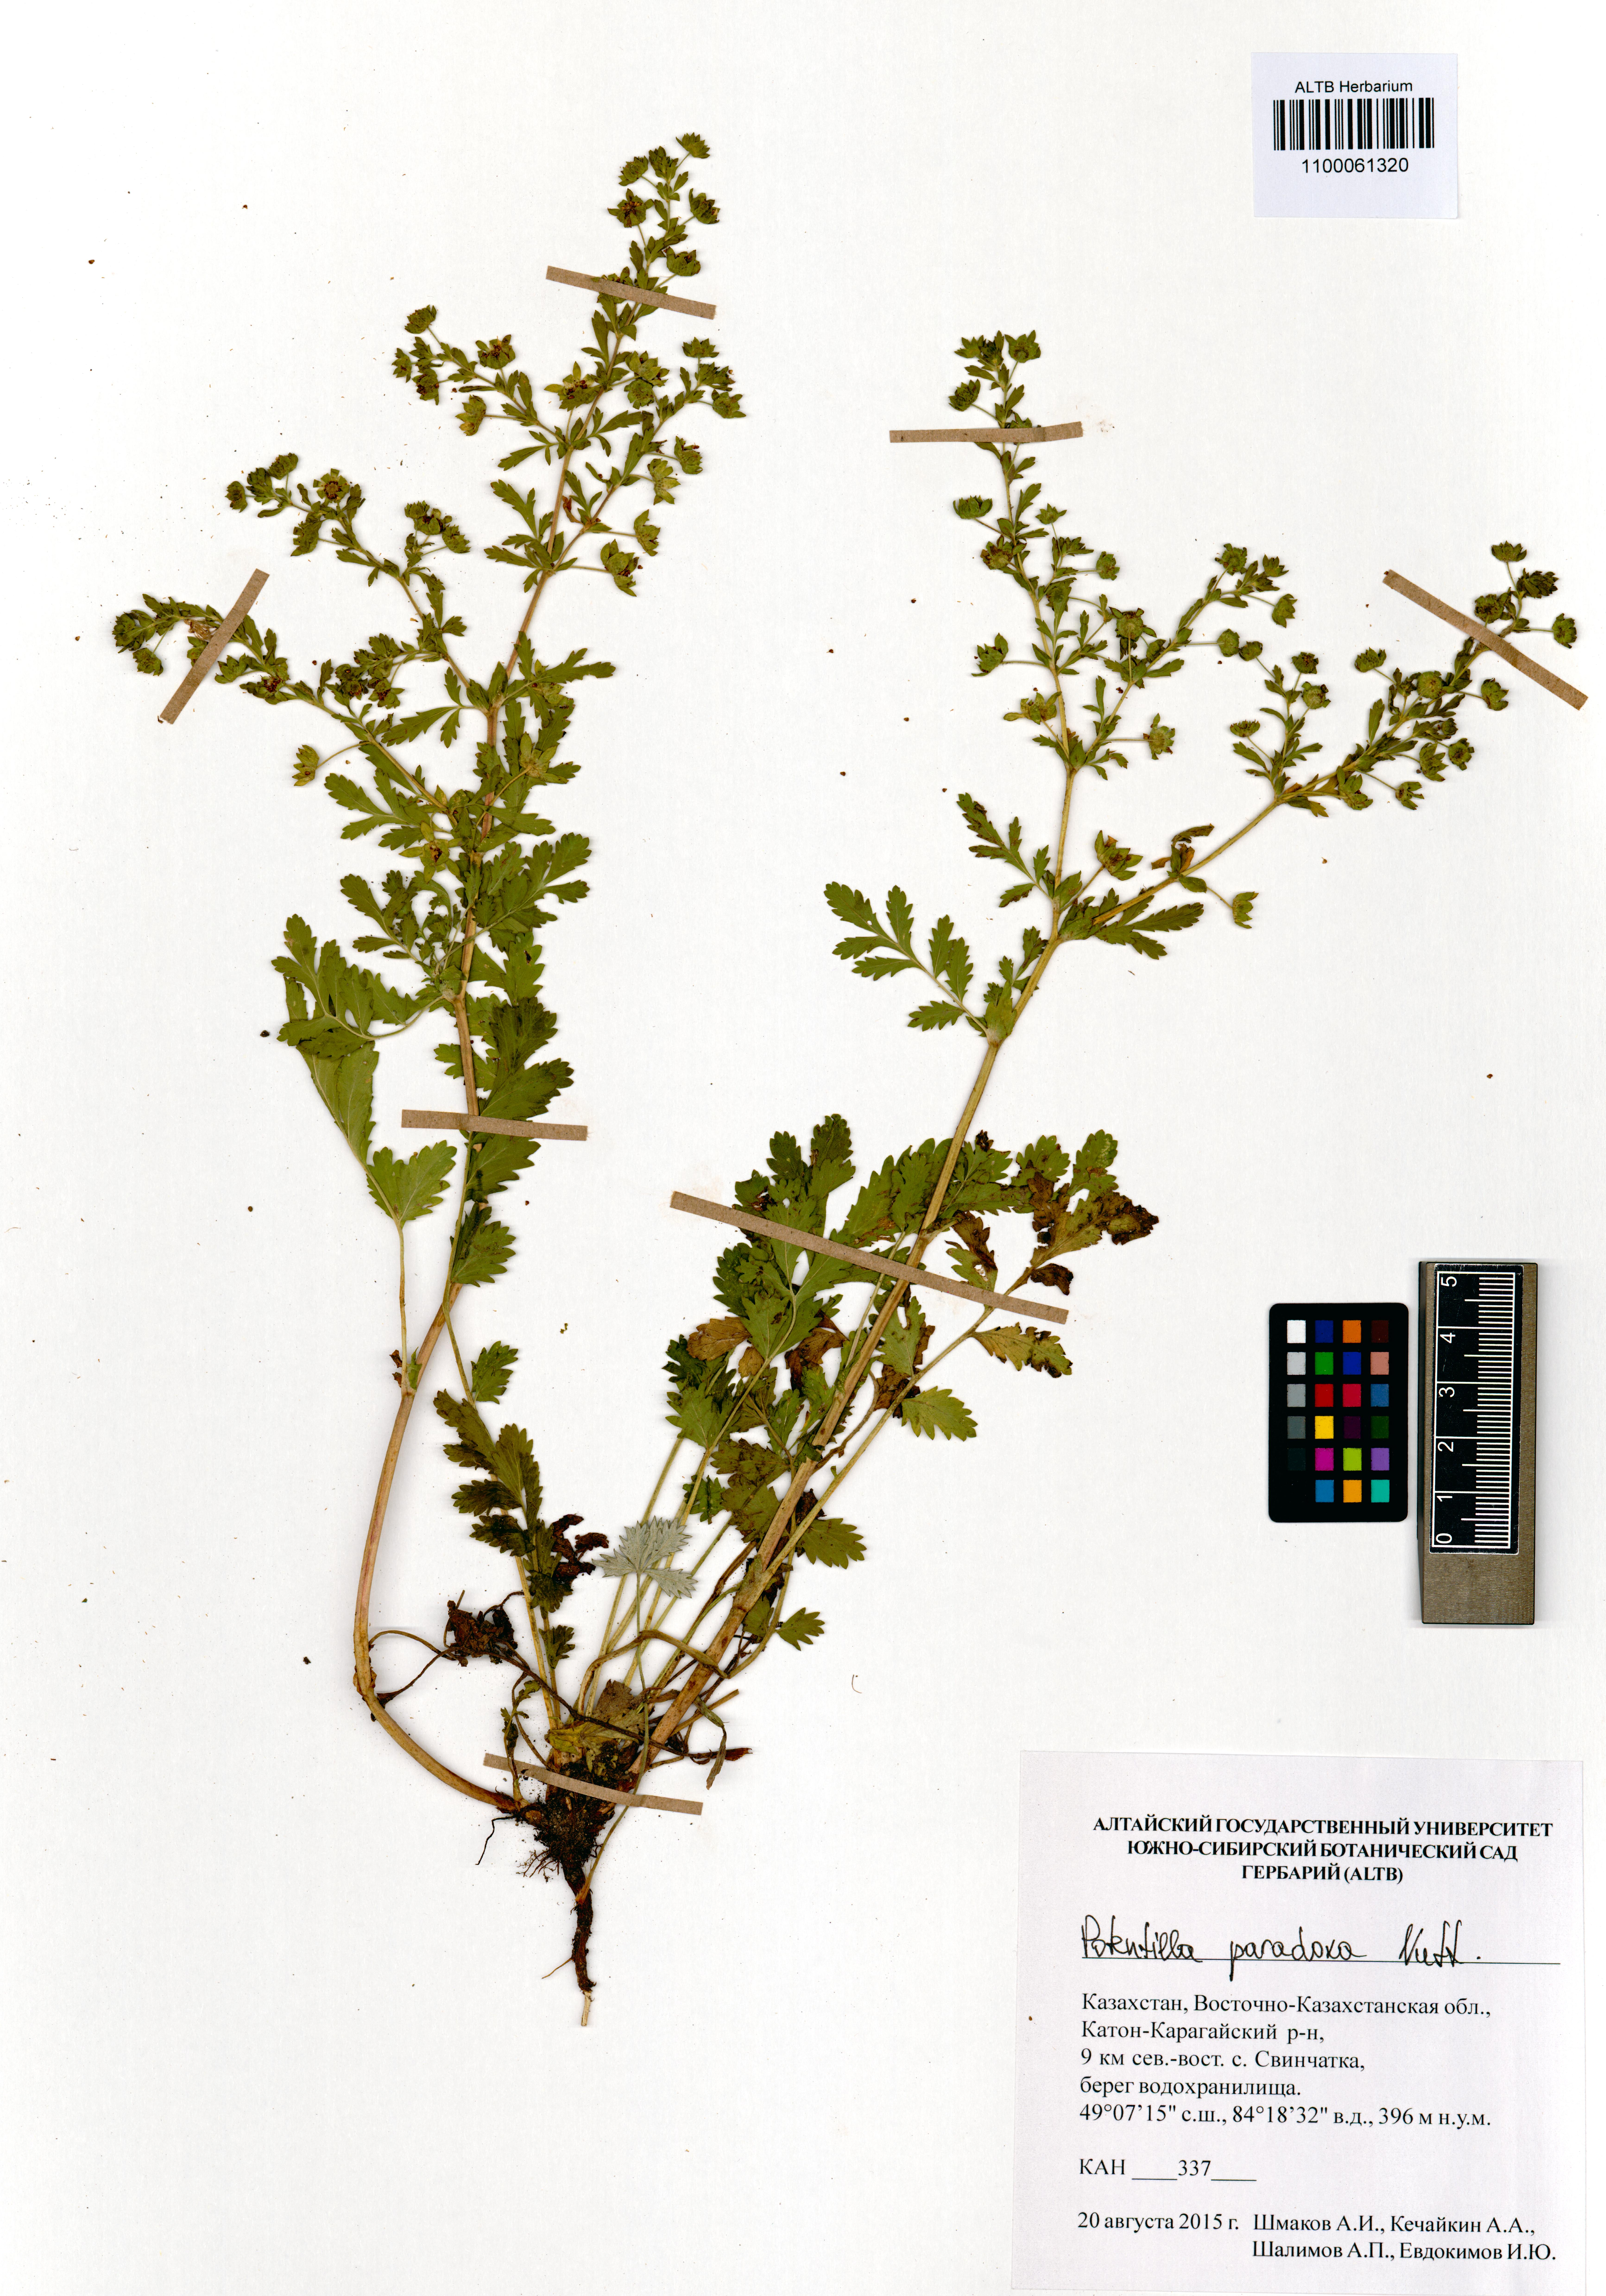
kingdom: Plantae
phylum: Tracheophyta
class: Magnoliopsida
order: Rosales
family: Rosaceae
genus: Potentilla
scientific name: Potentilla supina
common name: Prostrate cinquefoil
